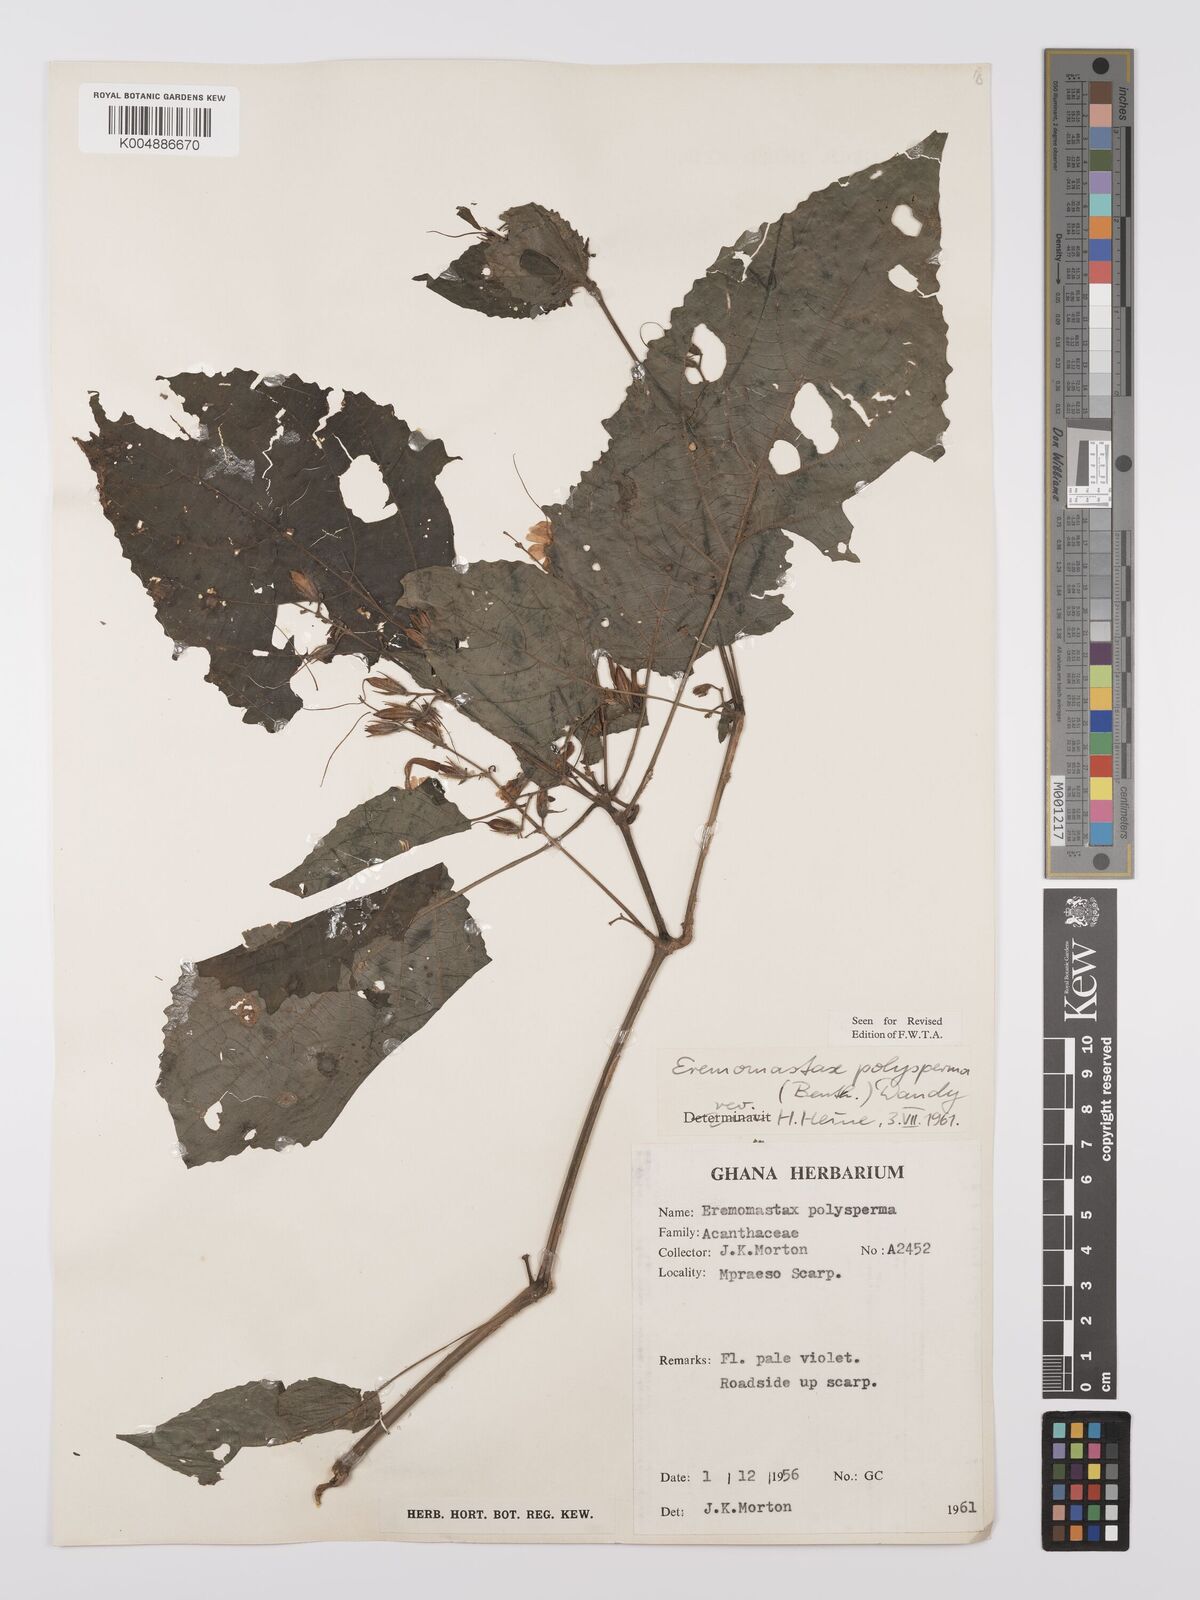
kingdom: Plantae
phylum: Tracheophyta
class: Magnoliopsida
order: Lamiales
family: Acanthaceae
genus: Eremomastax
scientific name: Eremomastax speciosa
